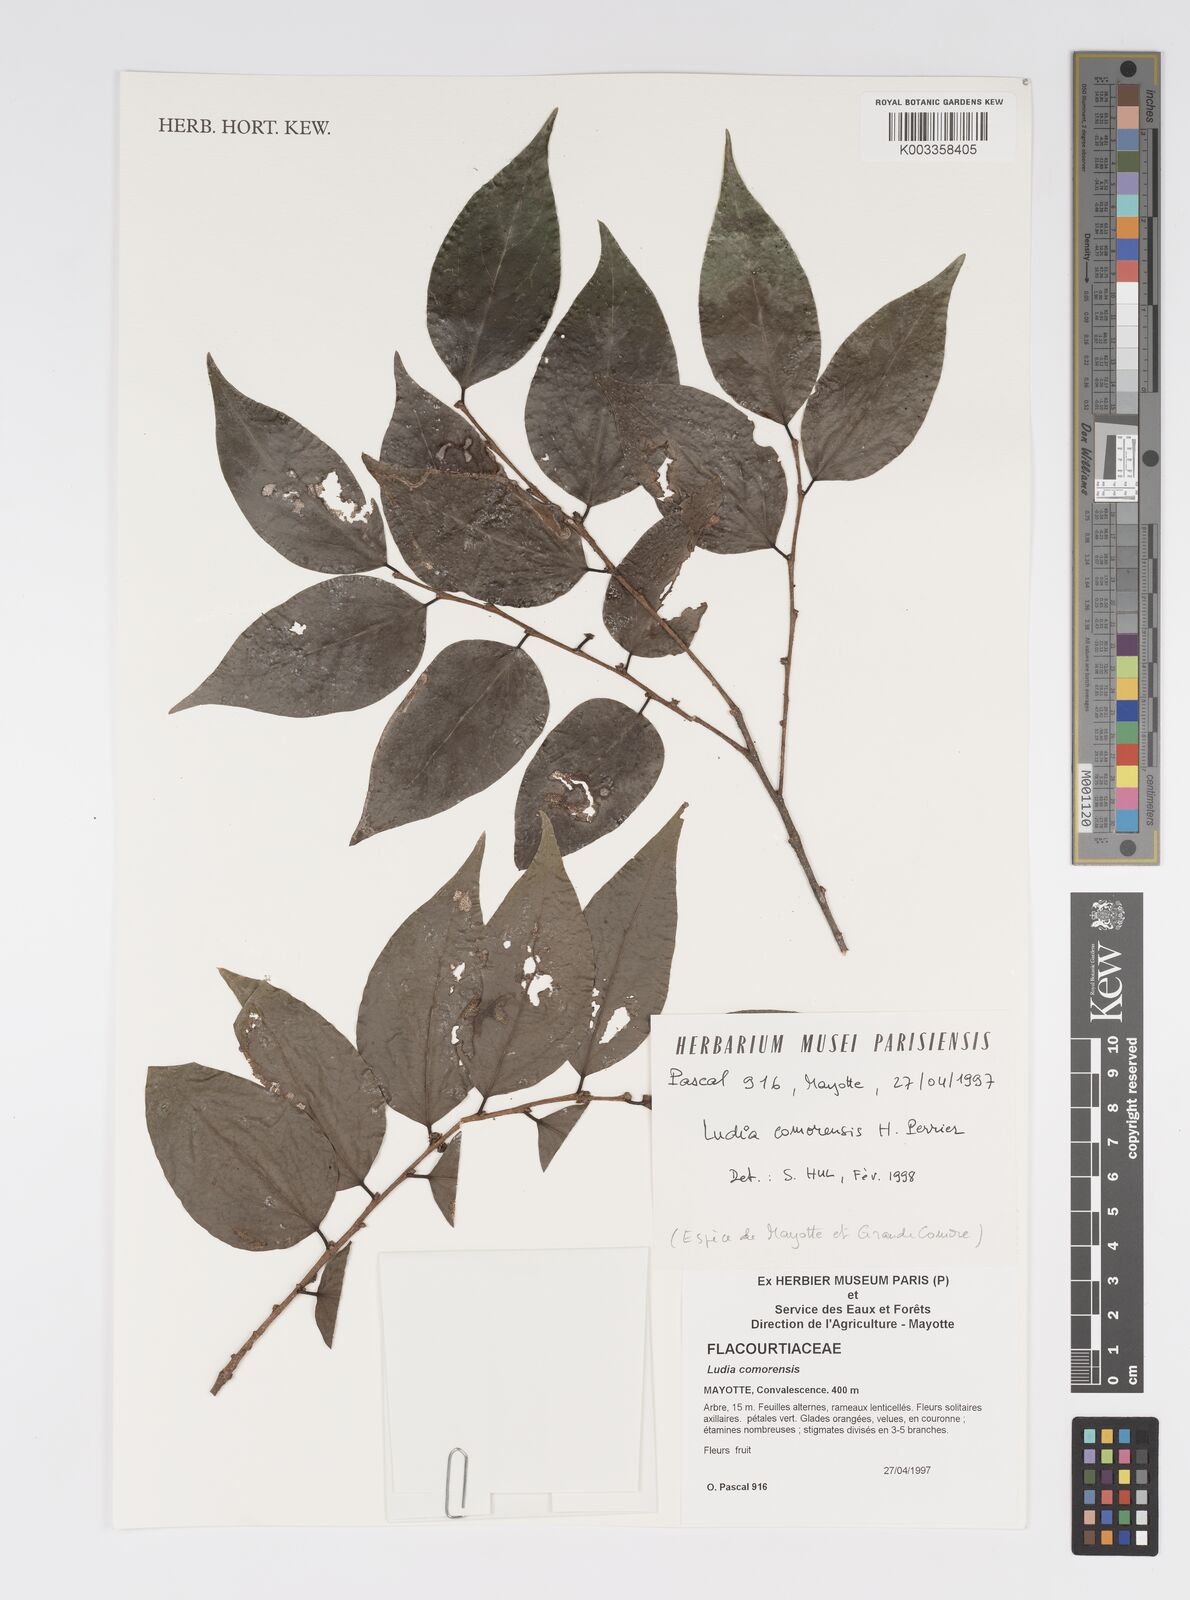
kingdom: Plantae
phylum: Tracheophyta
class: Magnoliopsida
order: Malpighiales
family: Salicaceae
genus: Ludia
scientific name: Ludia comorensis
